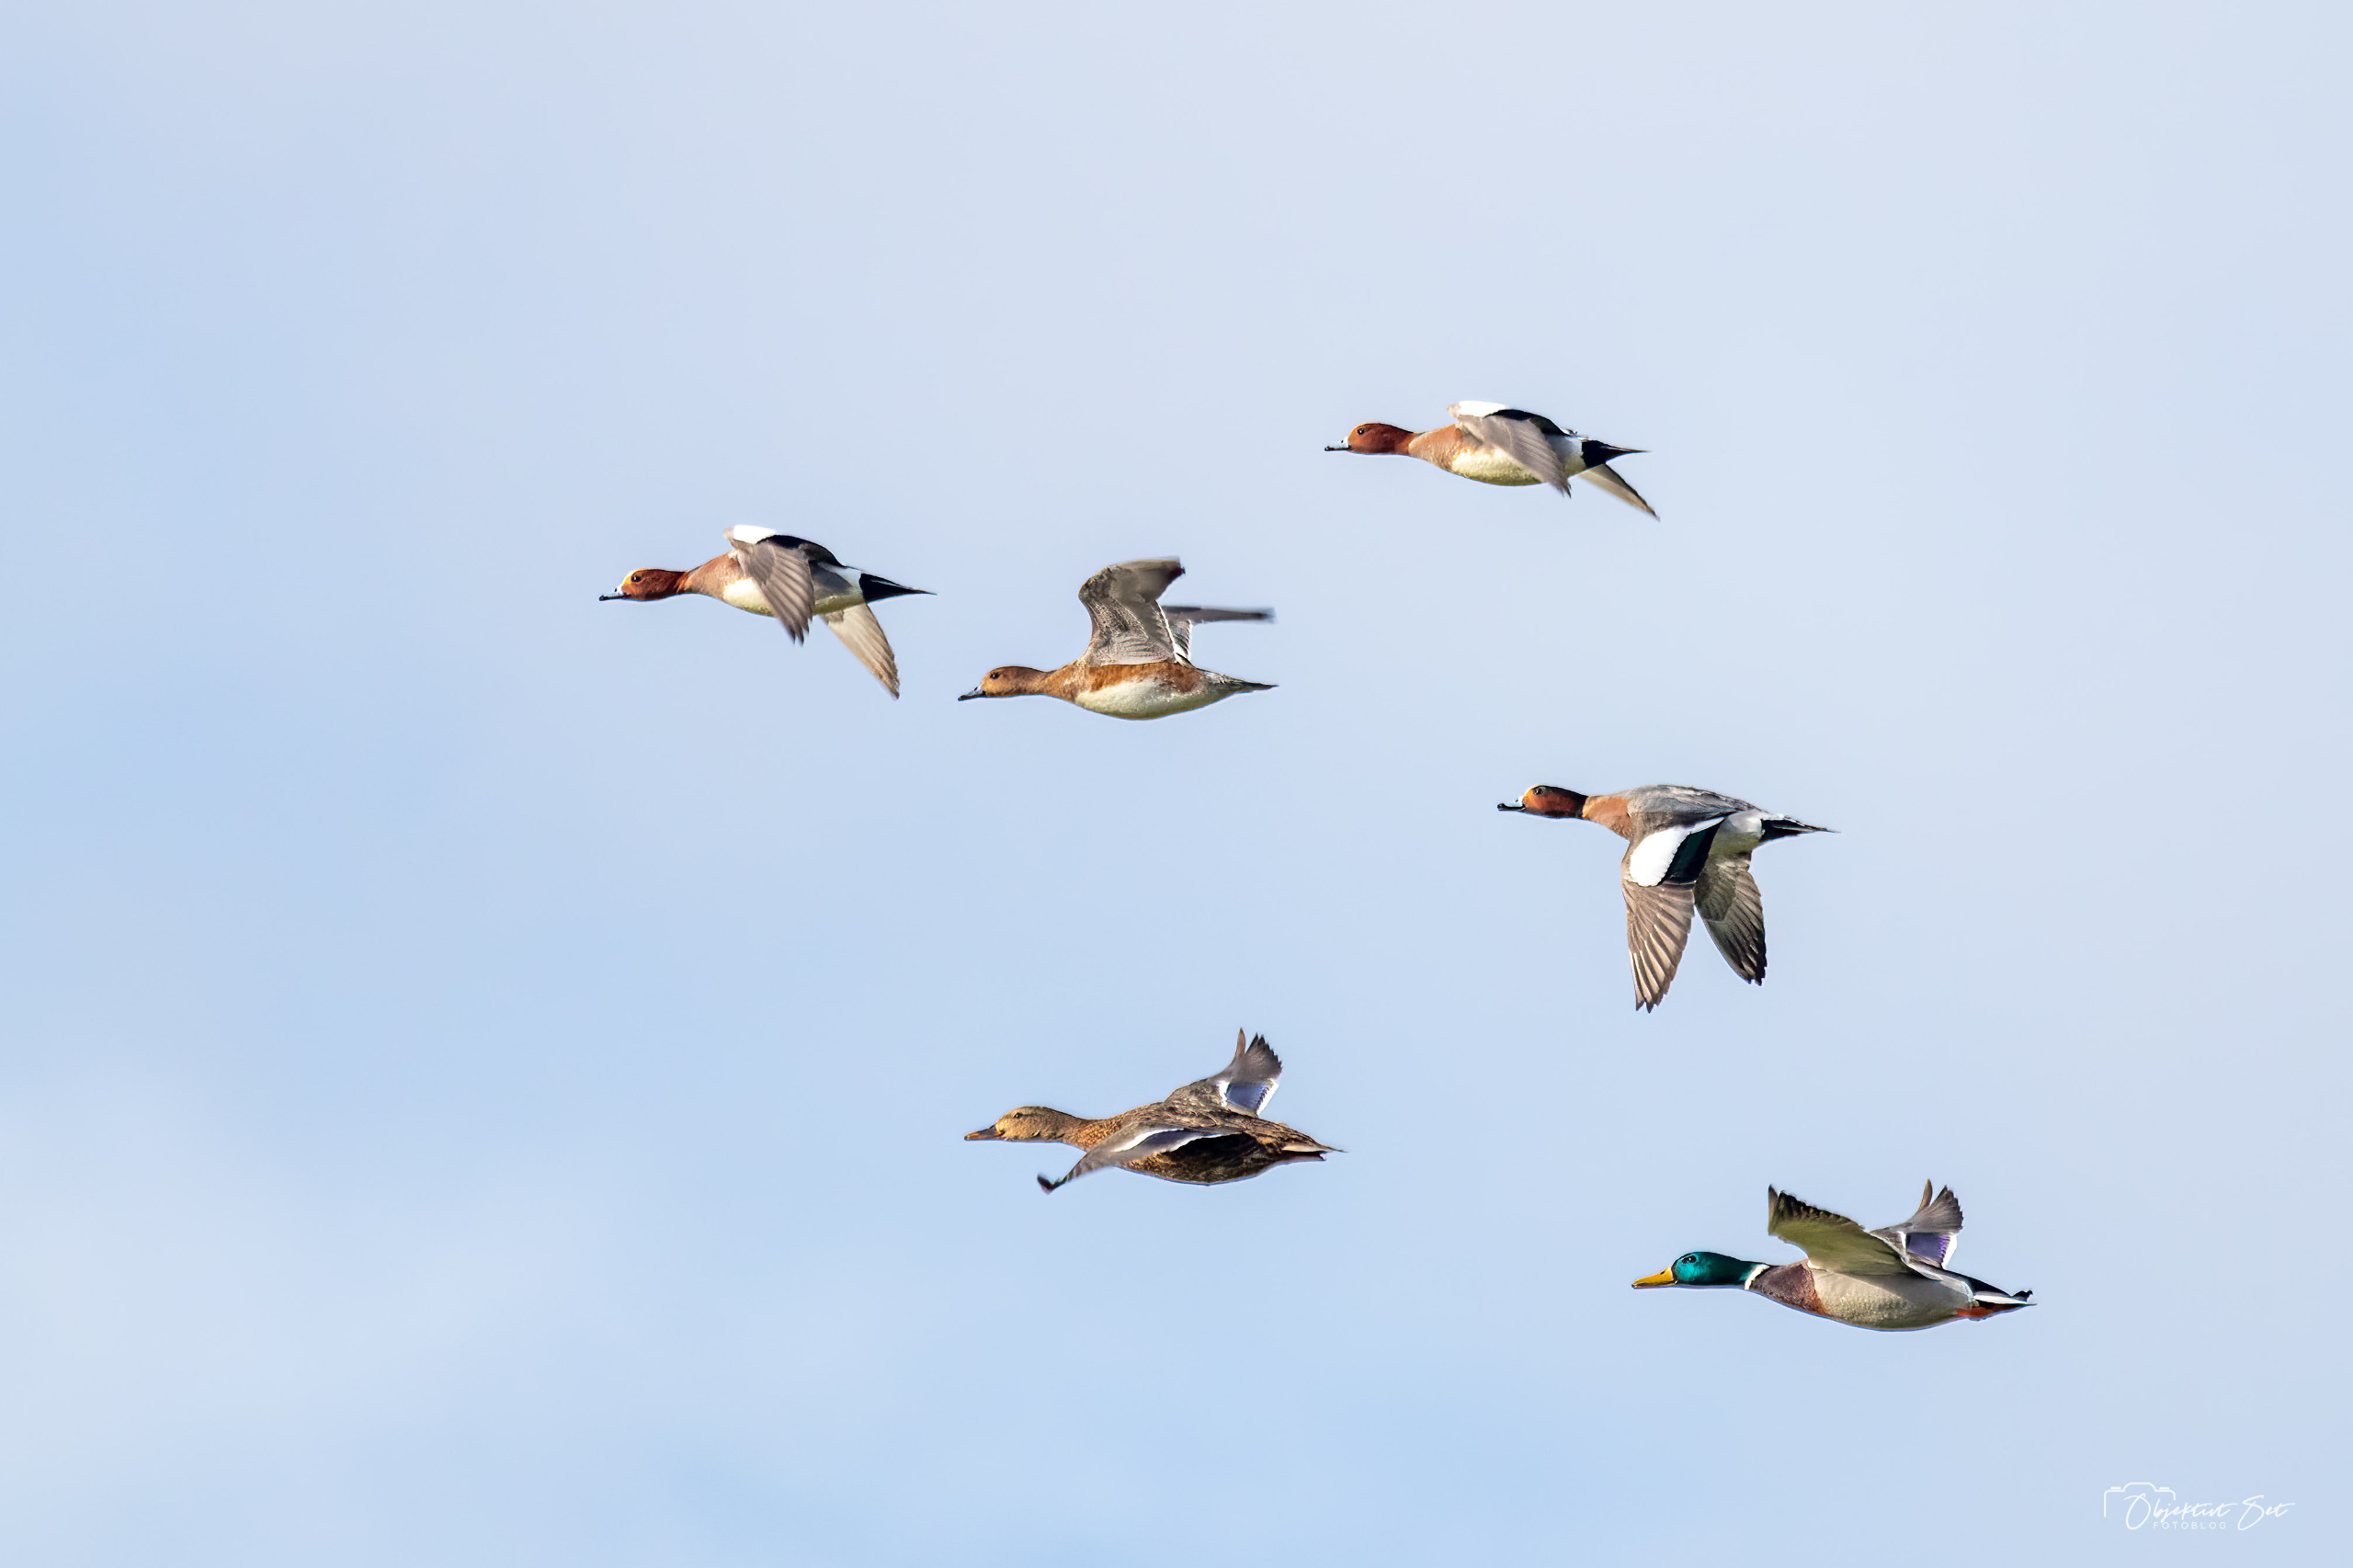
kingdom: Animalia
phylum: Chordata
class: Aves
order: Anseriformes
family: Anatidae
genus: Mareca
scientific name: Mareca penelope
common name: Pibeand
